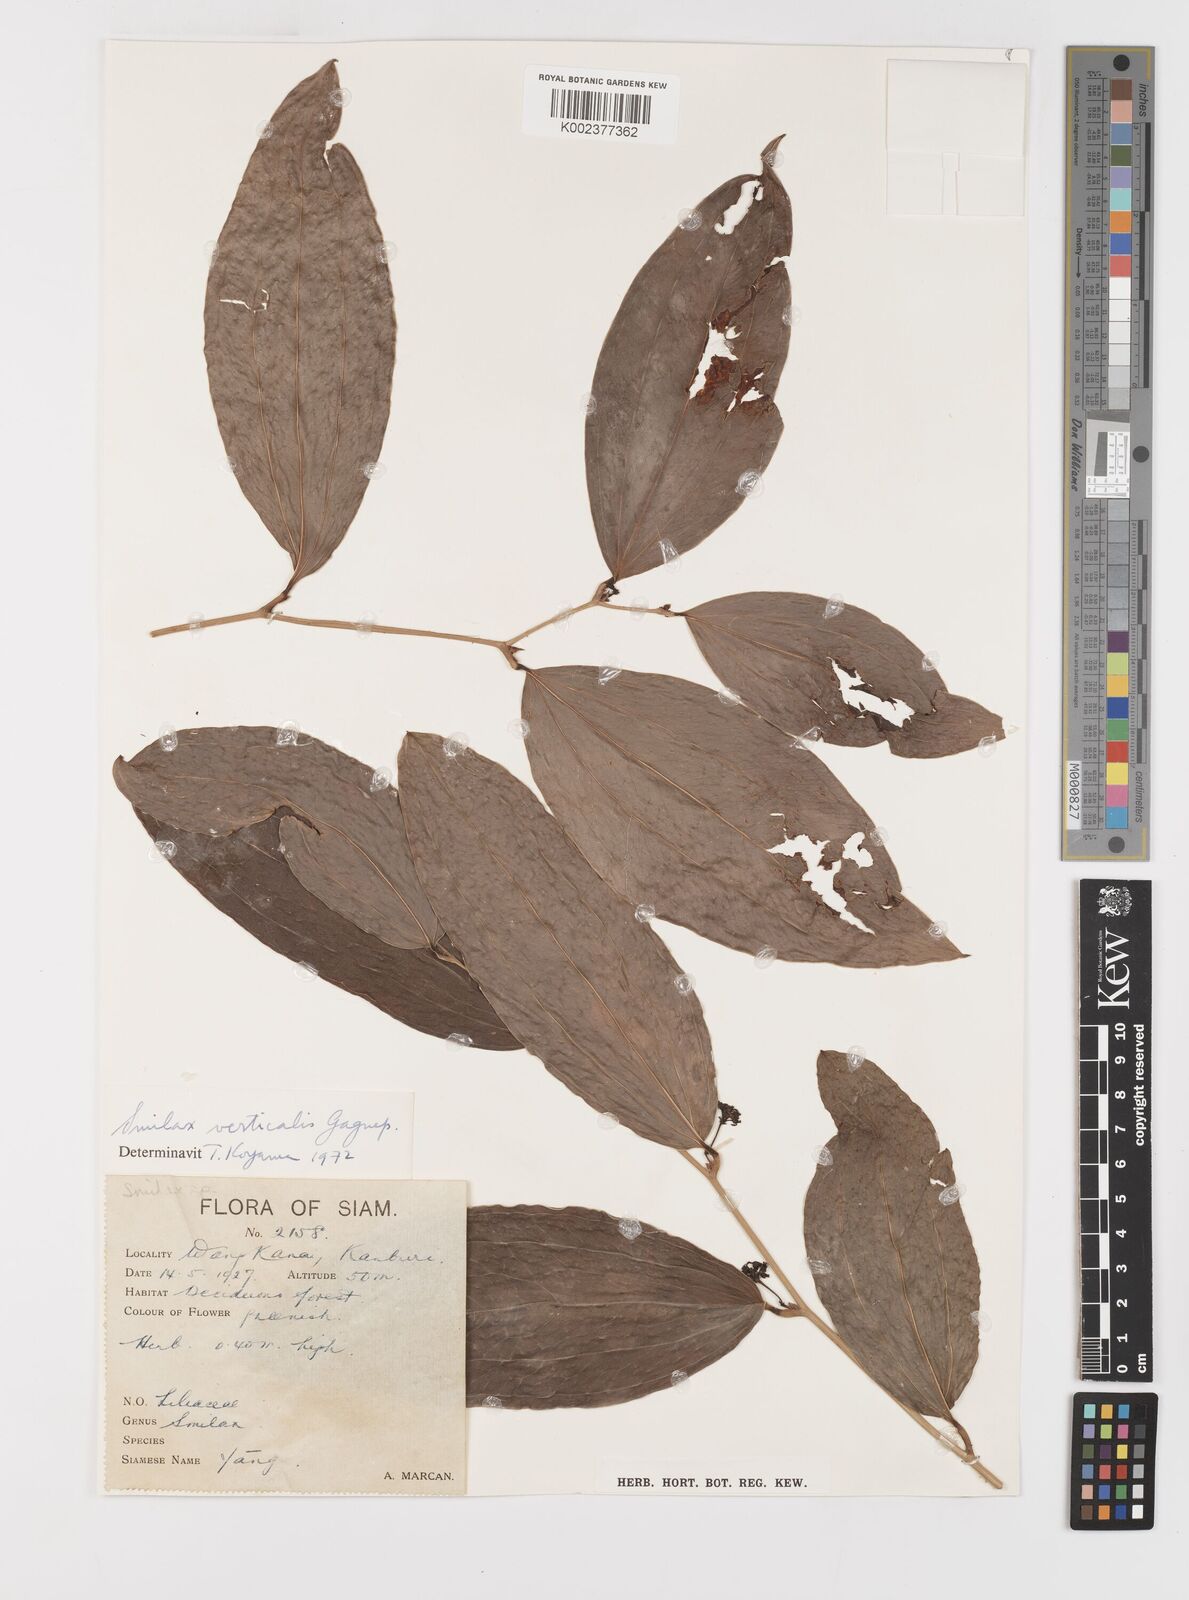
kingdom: Plantae
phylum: Tracheophyta
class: Liliopsida
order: Liliales
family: Smilacaceae
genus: Smilax
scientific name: Smilax verticalis
